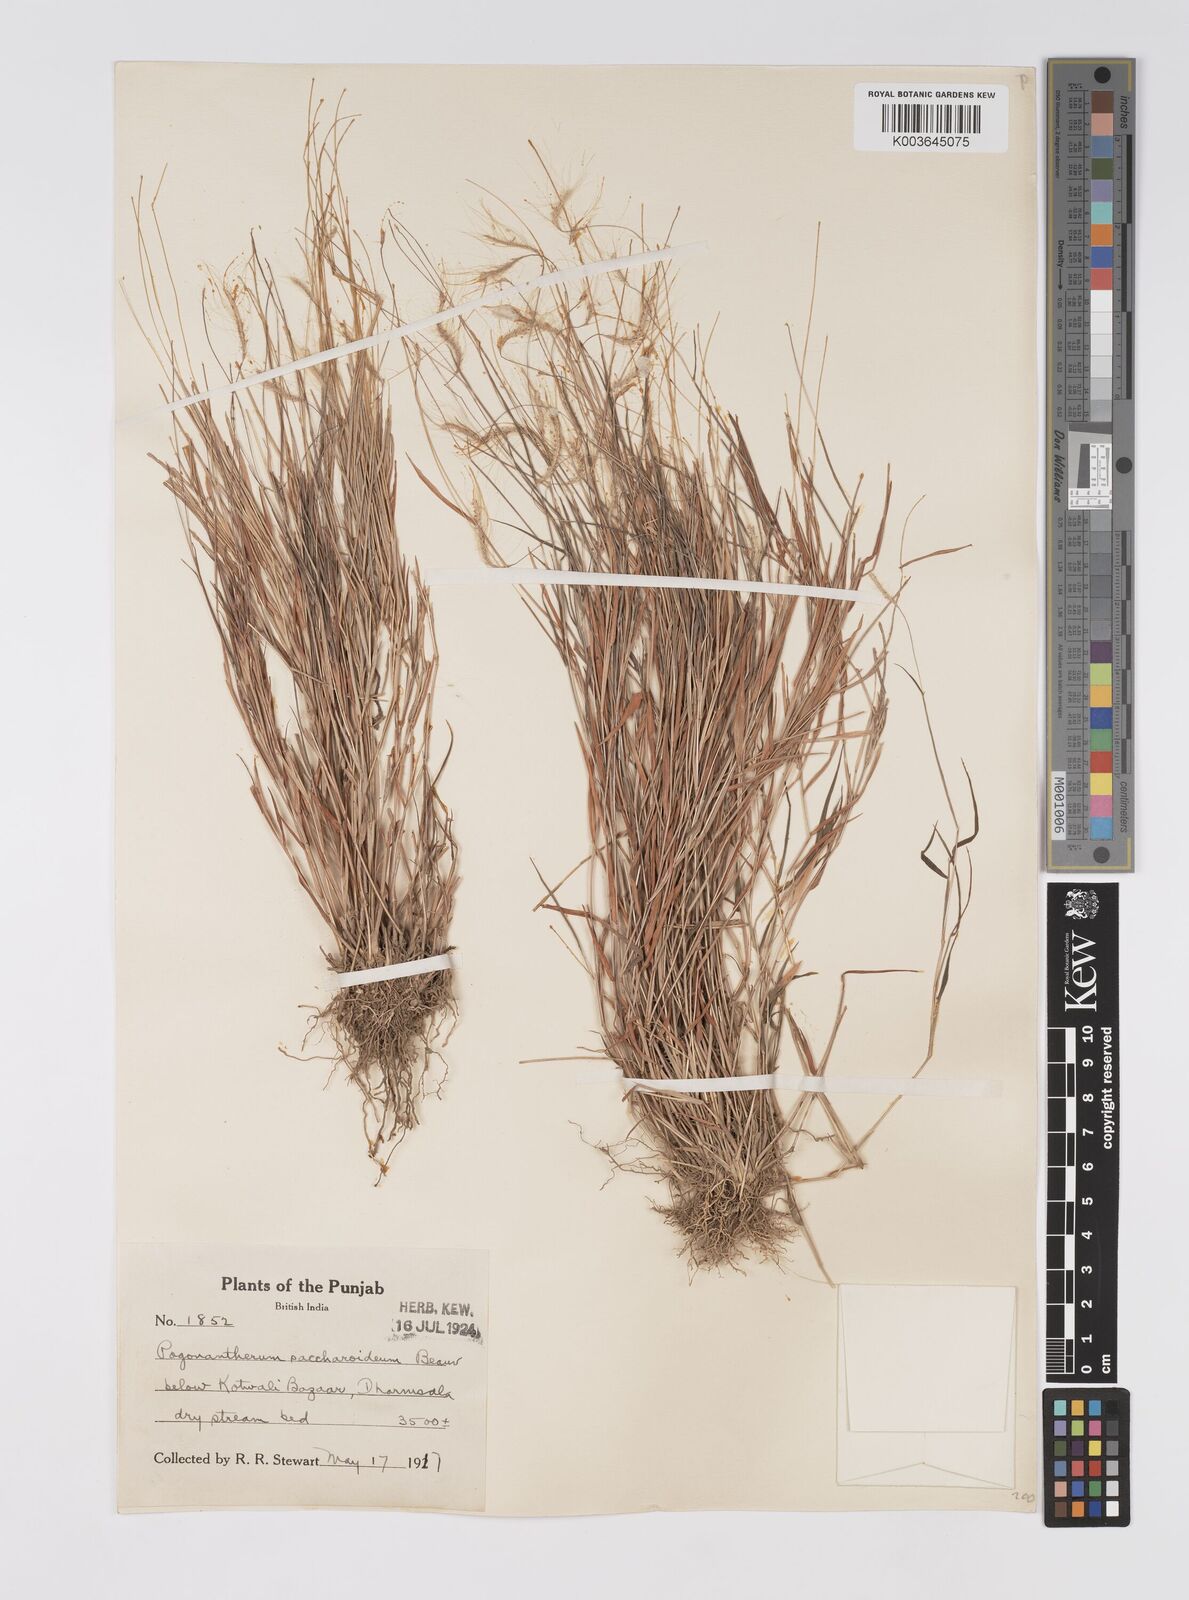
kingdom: Plantae
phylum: Tracheophyta
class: Liliopsida
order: Poales
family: Poaceae
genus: Pogonatherum
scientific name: Pogonatherum crinitum
